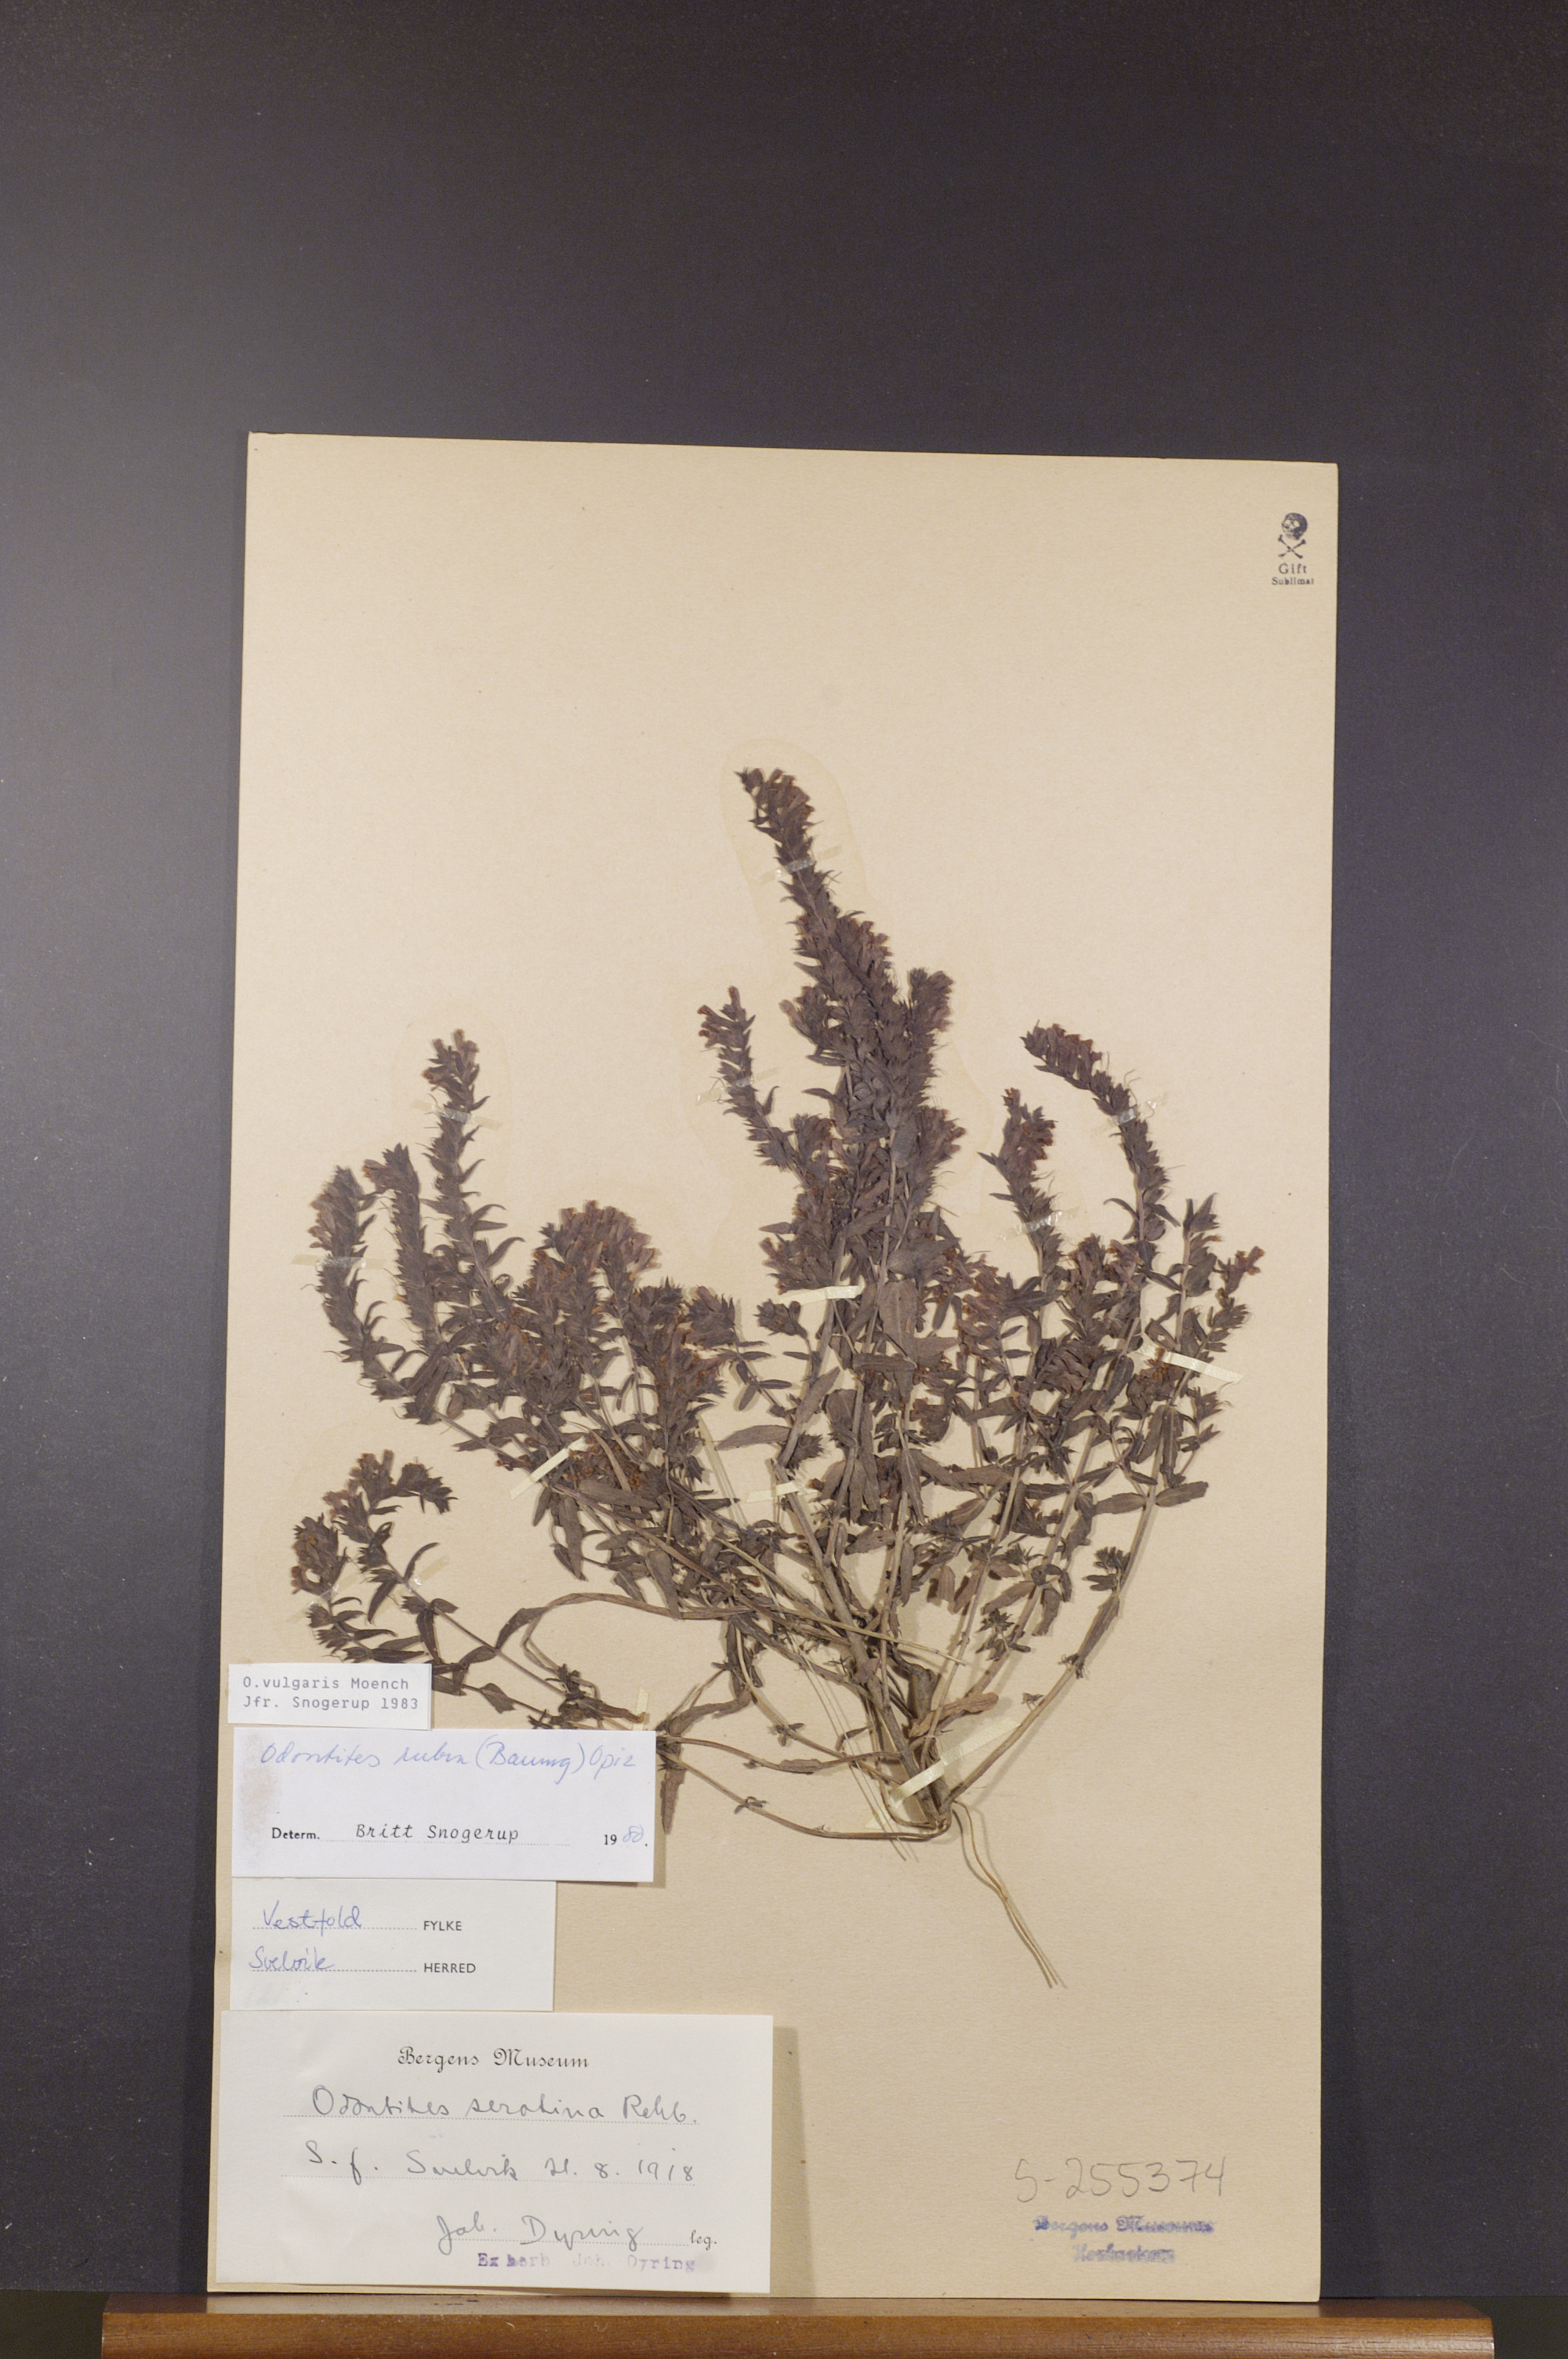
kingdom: Plantae
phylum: Tracheophyta
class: Magnoliopsida
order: Lamiales
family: Orobanchaceae
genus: Odontites
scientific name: Odontites vulgaris
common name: Broomrape
